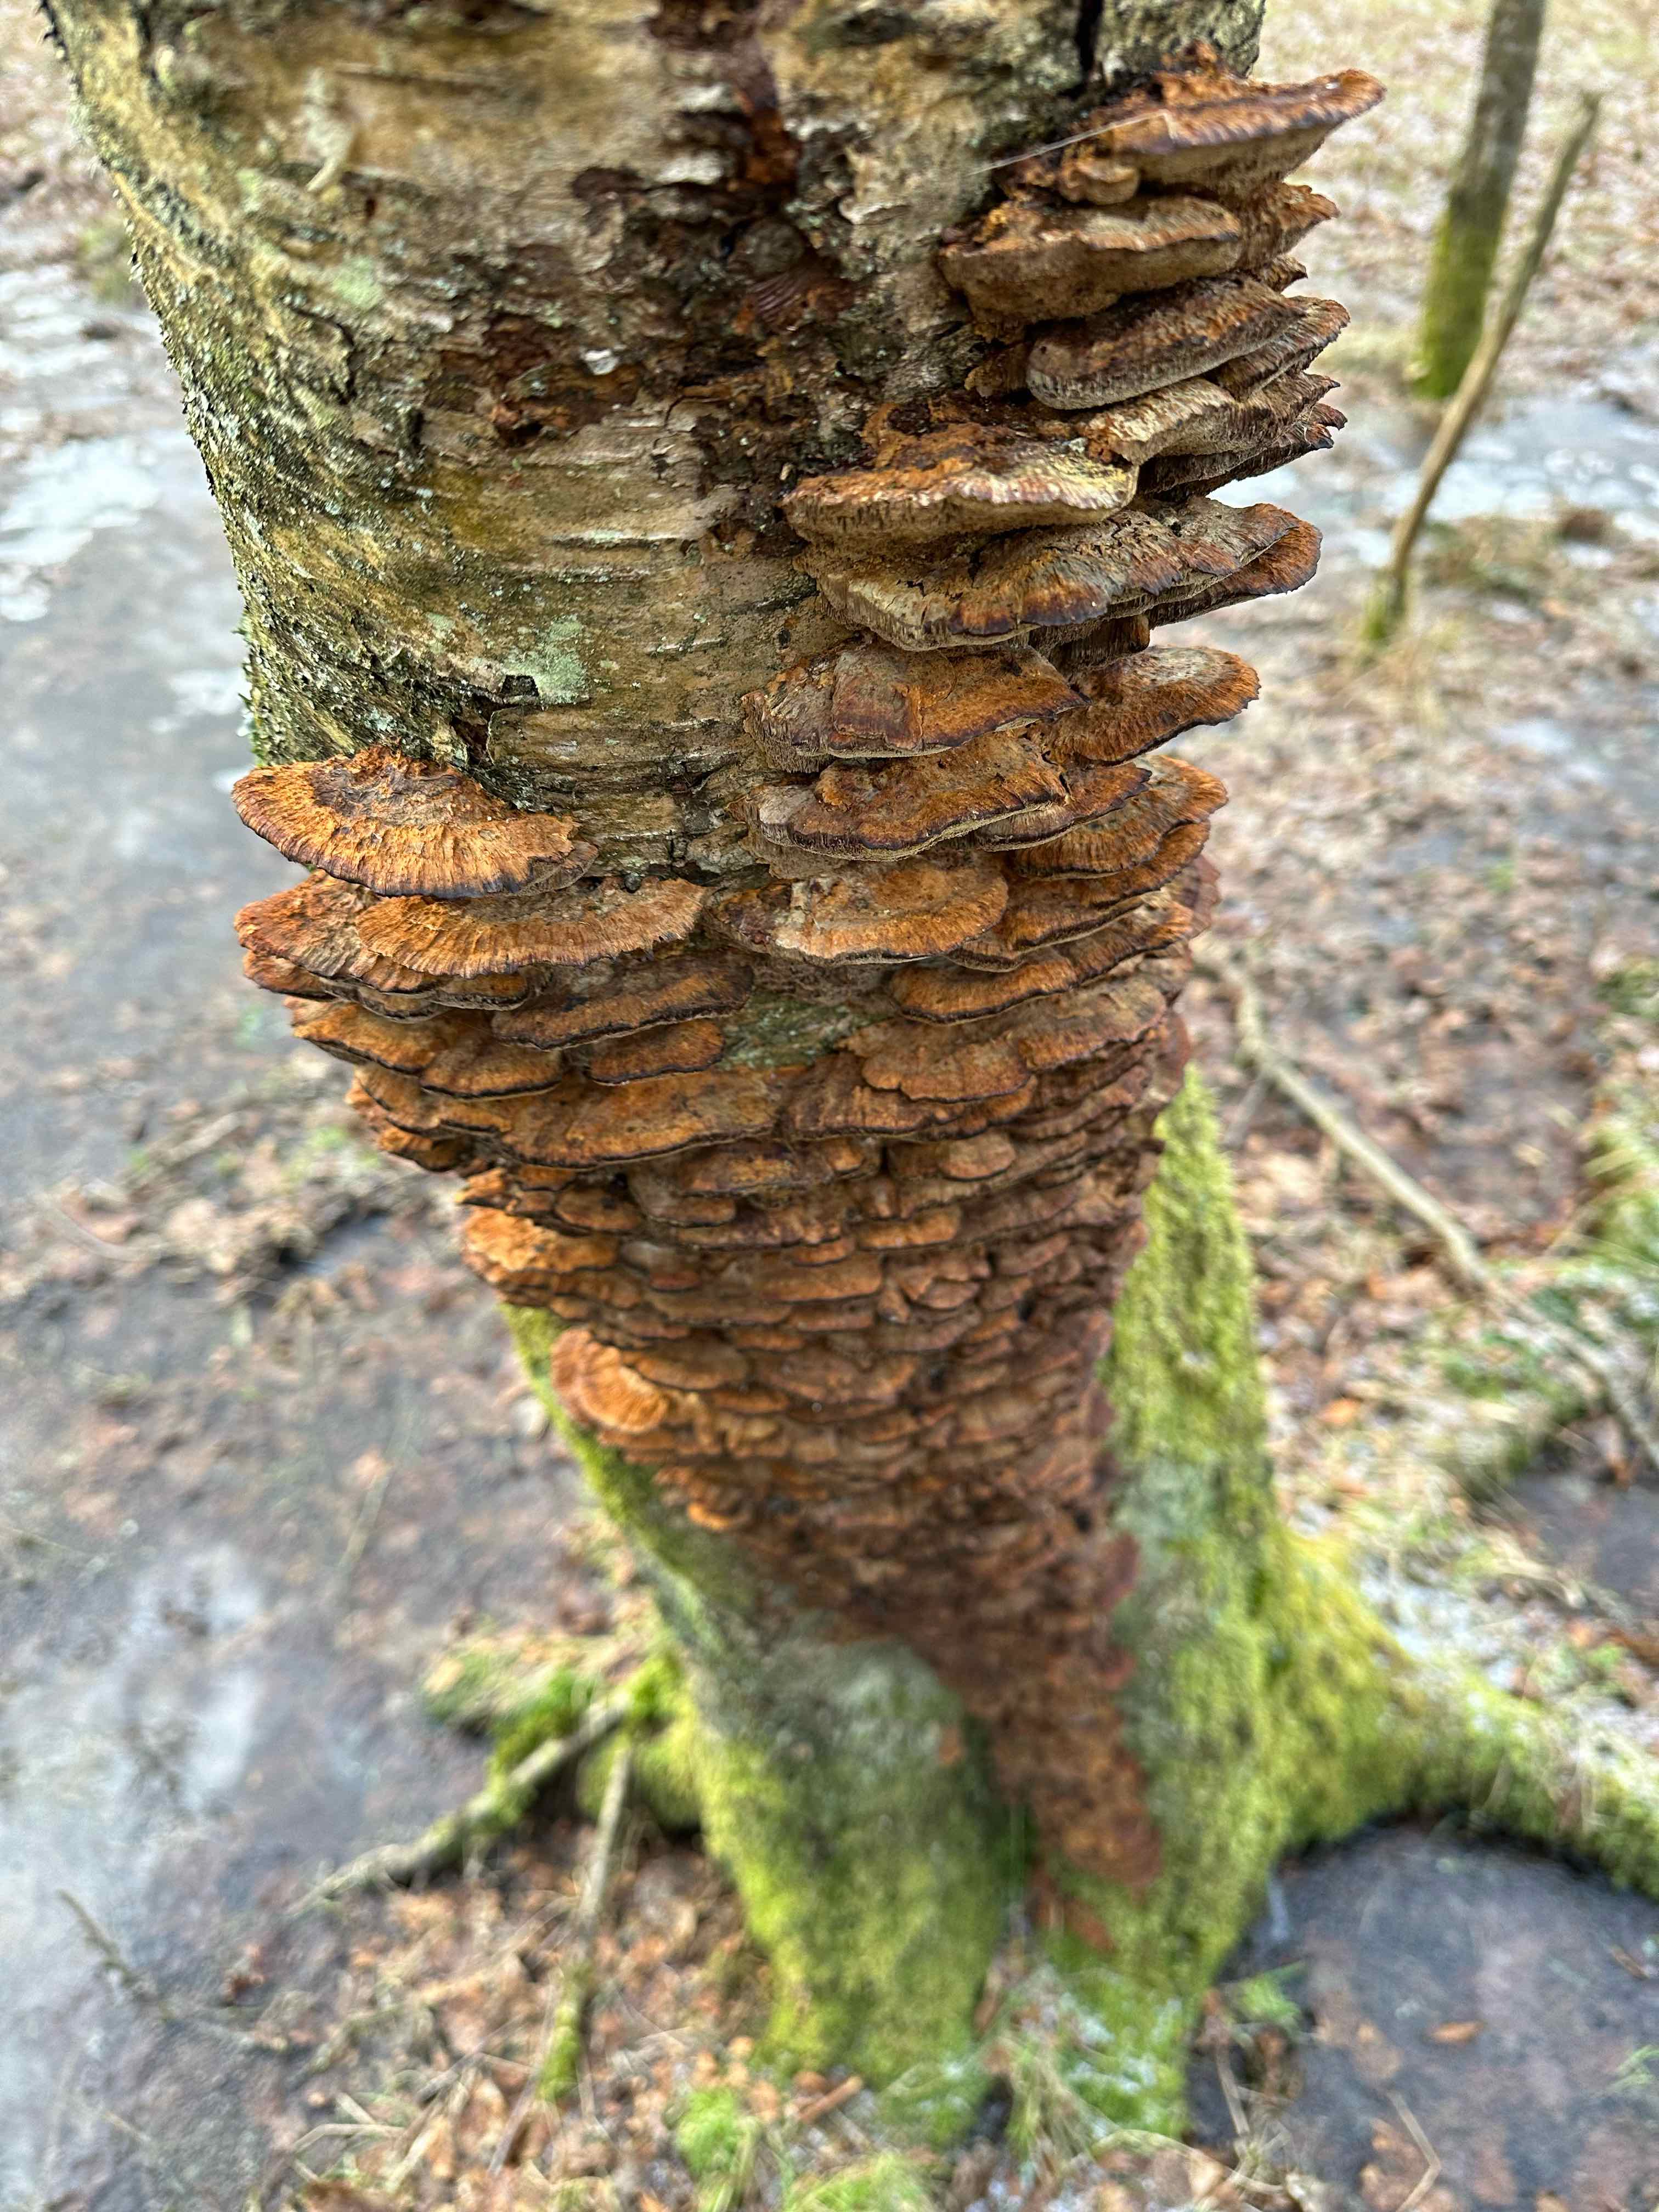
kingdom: Fungi
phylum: Basidiomycota
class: Agaricomycetes
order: Hymenochaetales
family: Hymenochaetaceae
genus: Xanthoporia
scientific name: Xanthoporia radiata
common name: elle-spejlporesvamp
